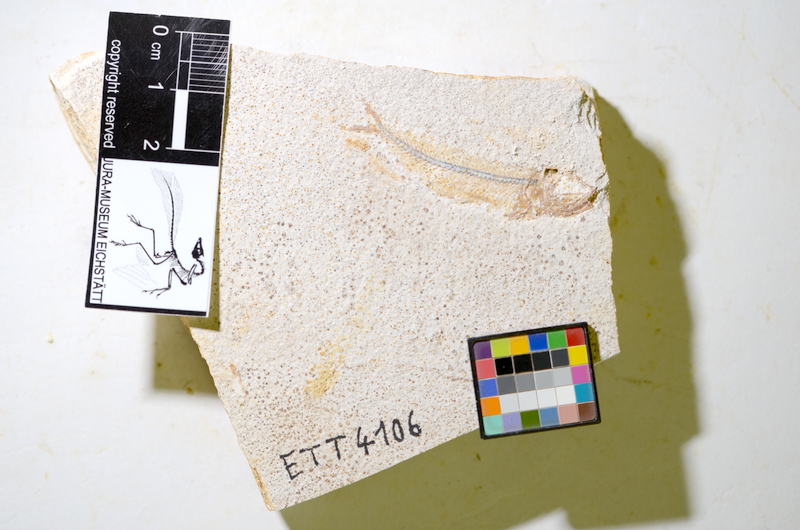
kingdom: Animalia
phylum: Chordata
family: Ascalaboidae
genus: Ebertichthys
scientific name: Ebertichthys ettlingensis
